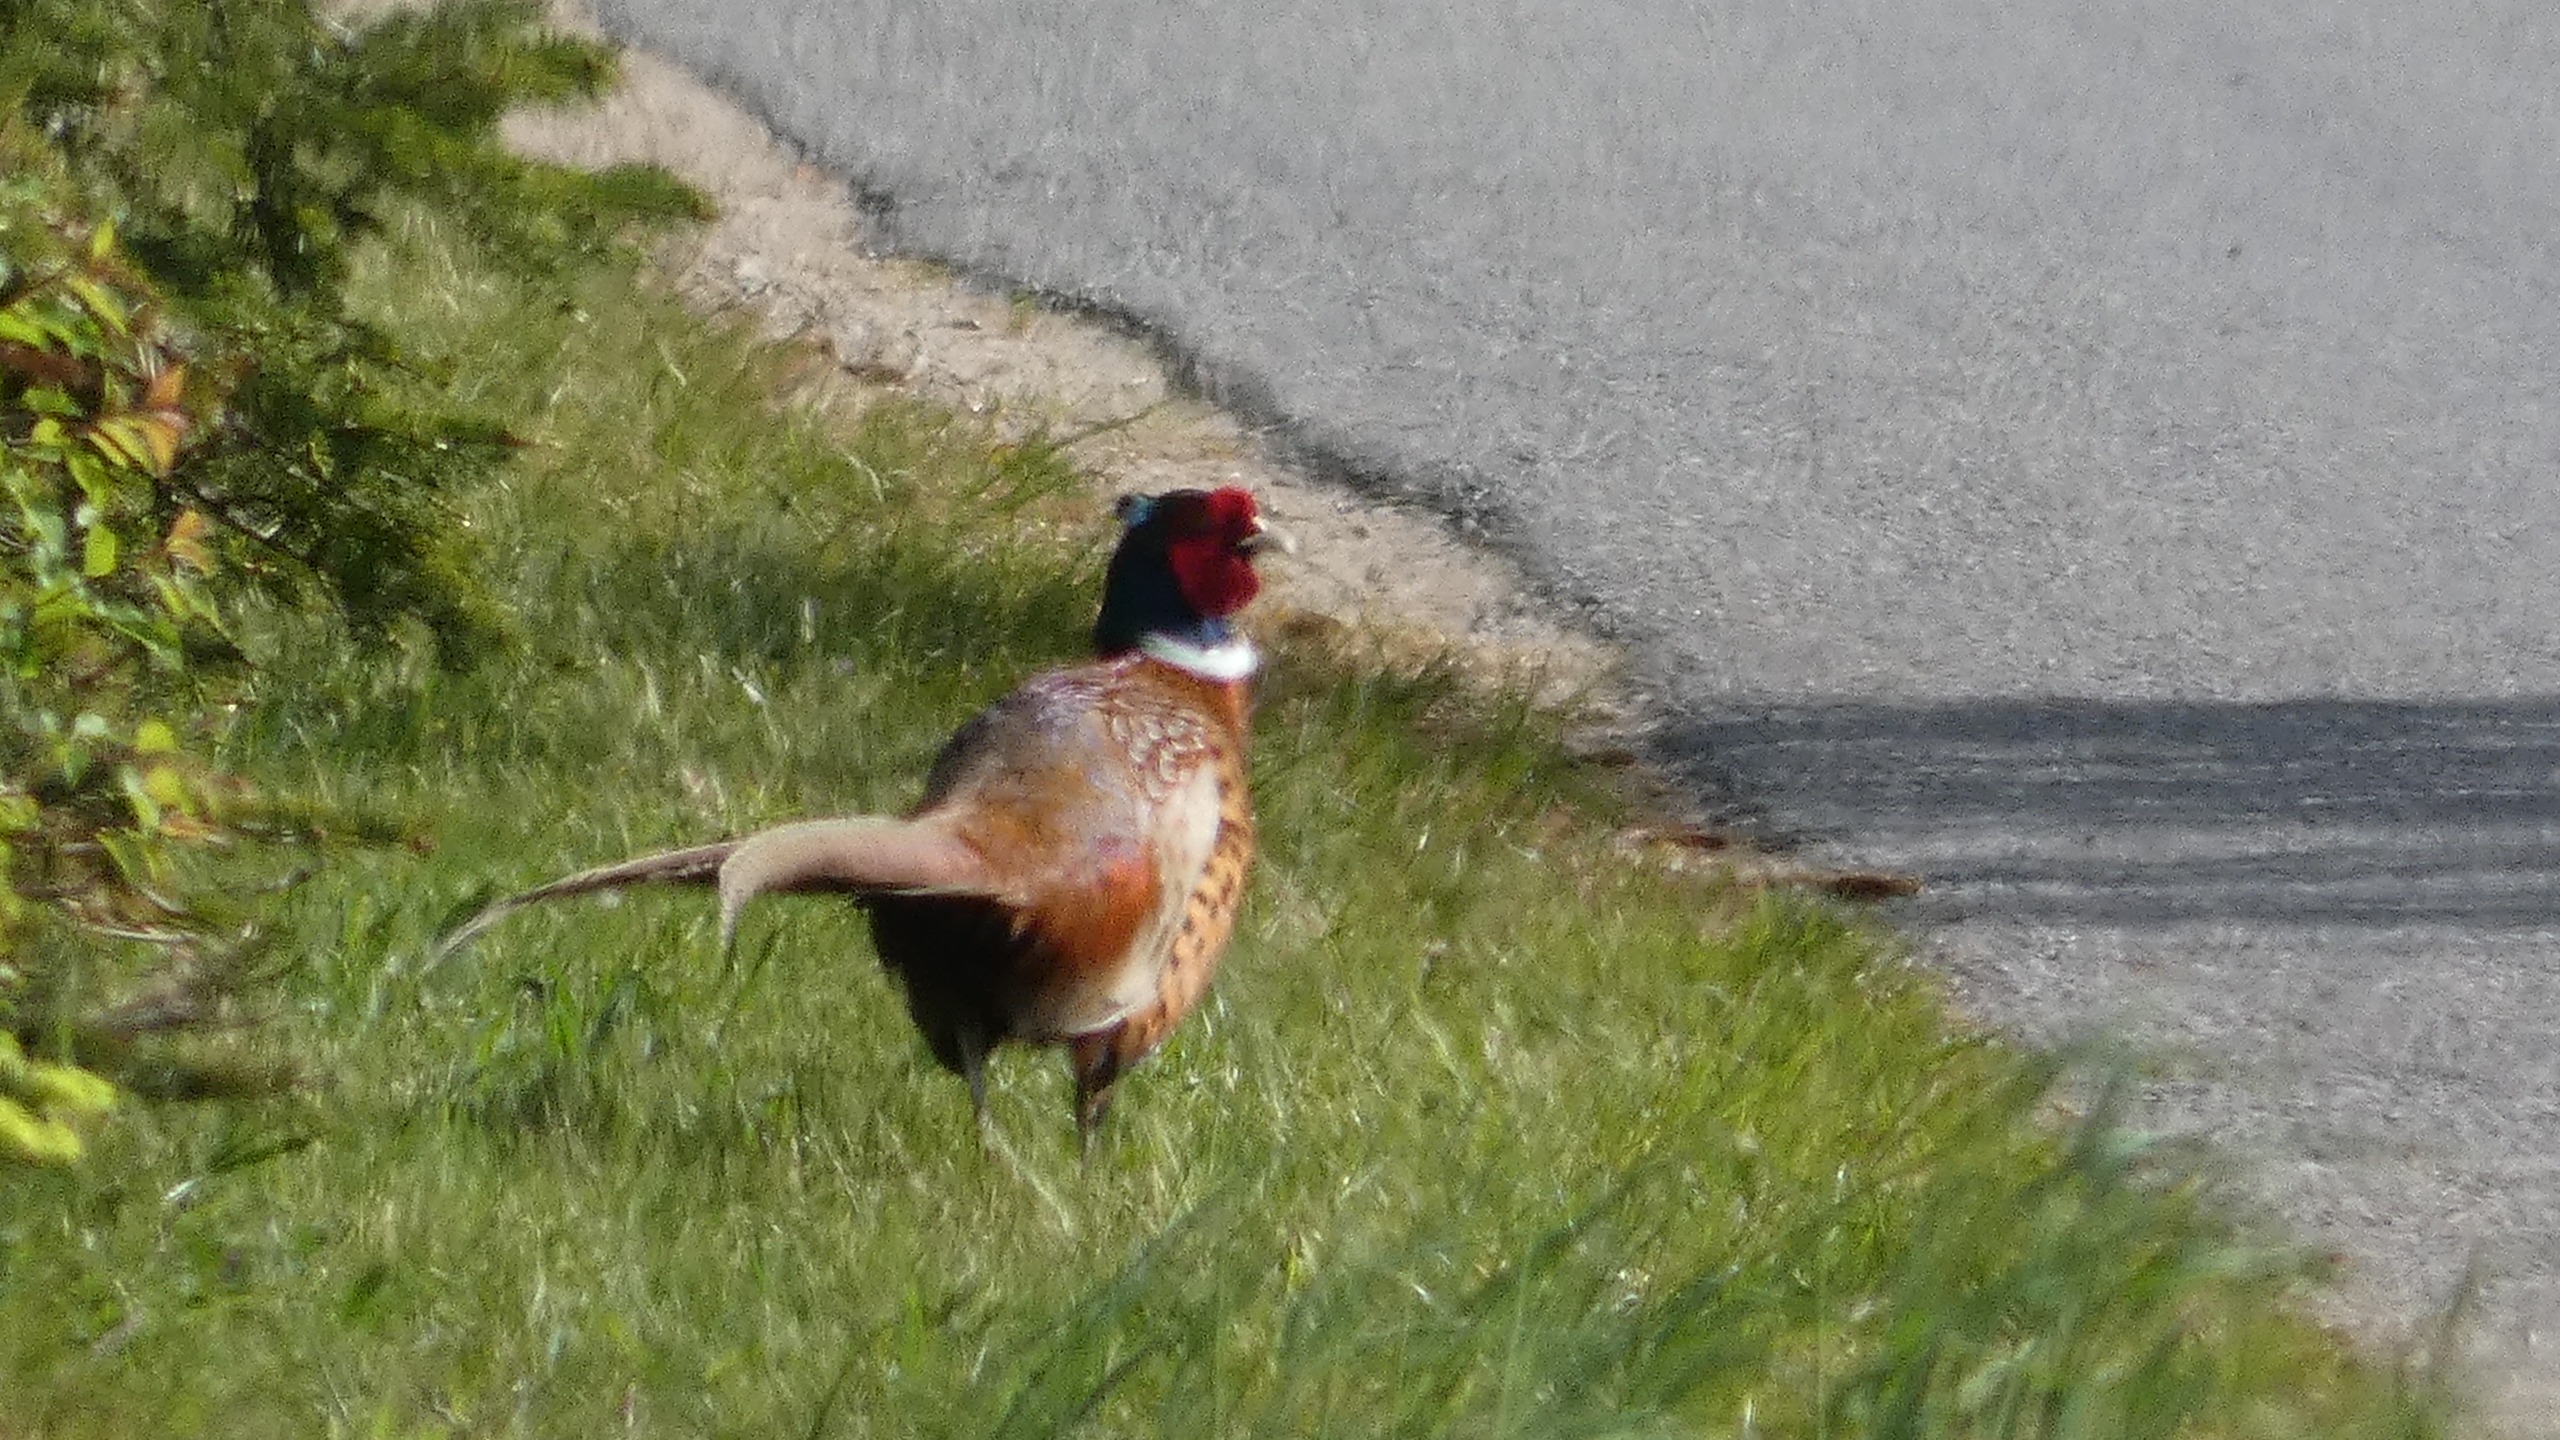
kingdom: Animalia
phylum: Chordata
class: Aves
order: Galliformes
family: Phasianidae
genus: Phasianus
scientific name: Phasianus colchicus
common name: Fasan
